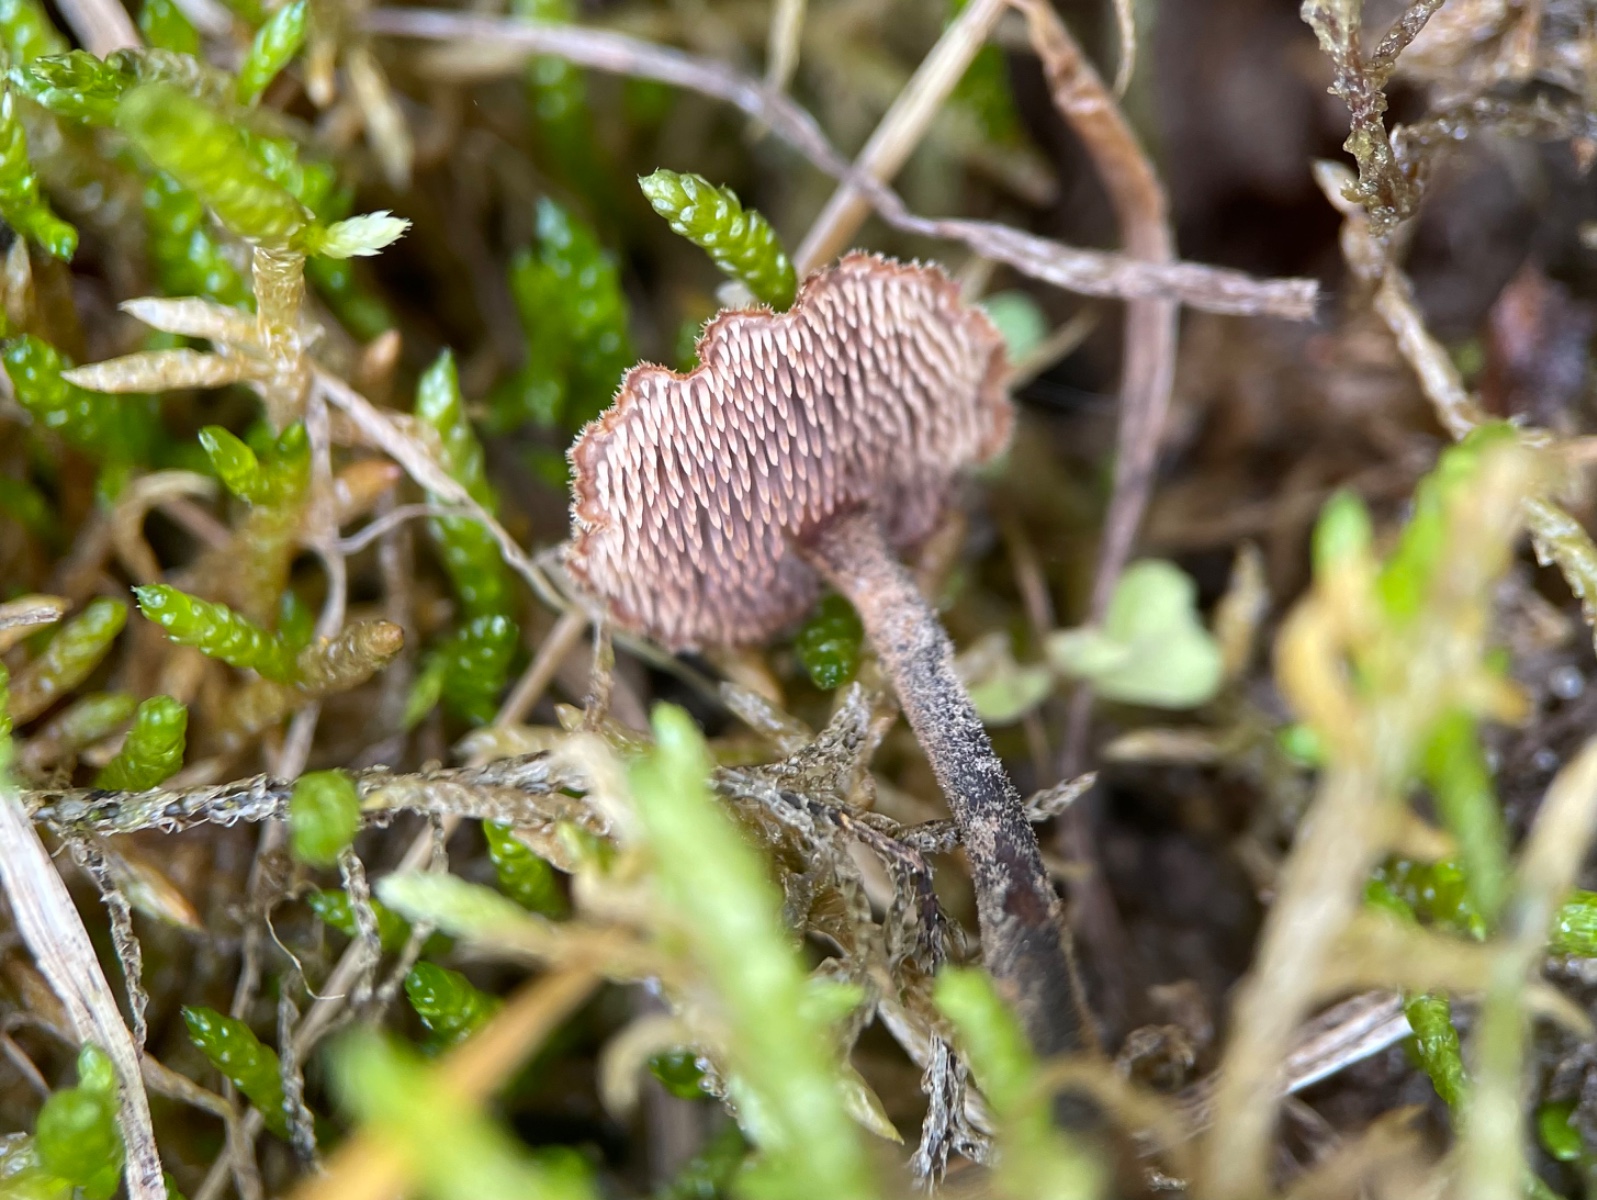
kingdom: Fungi
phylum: Basidiomycota
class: Agaricomycetes
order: Russulales
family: Auriscalpiaceae
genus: Auriscalpium
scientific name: Auriscalpium vulgare
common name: koglepigsvamp
